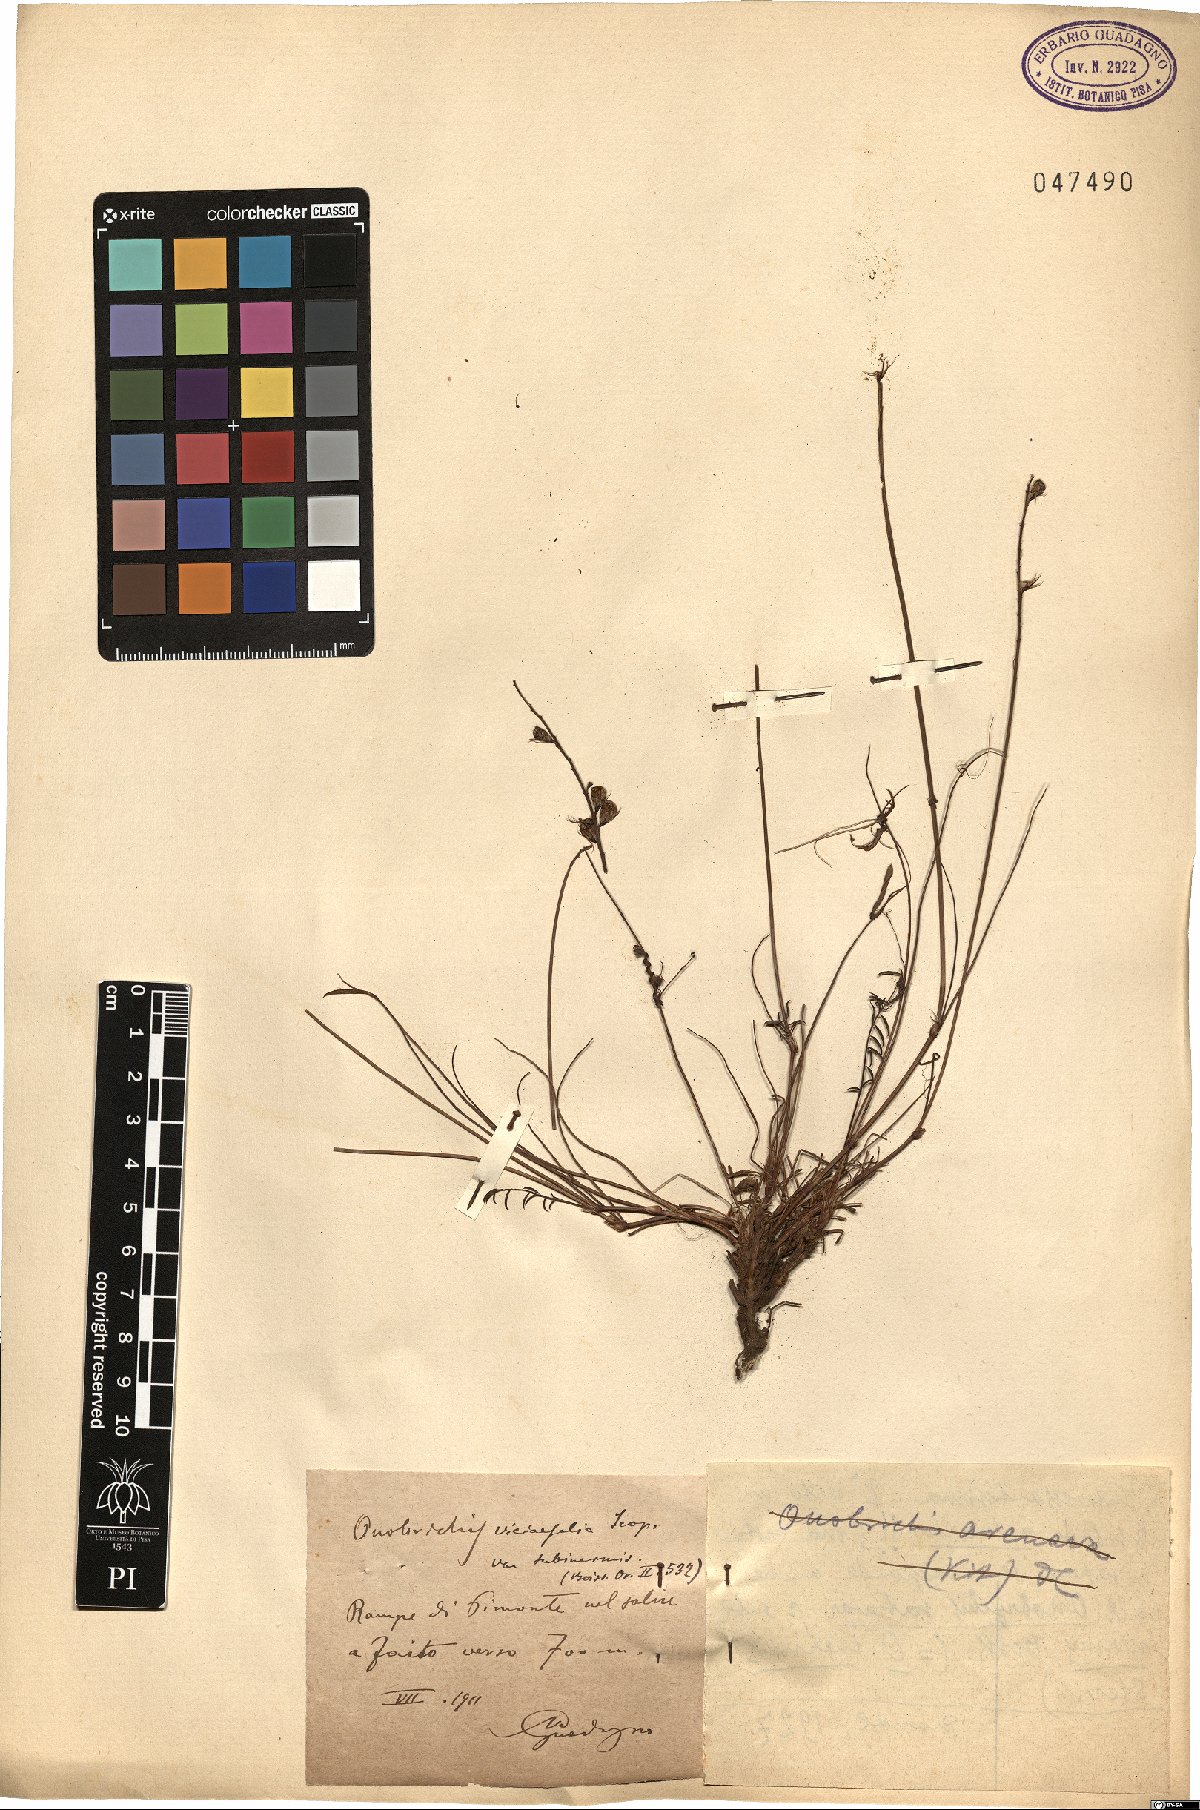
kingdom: Plantae
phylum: Tracheophyta
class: Magnoliopsida
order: Fabales
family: Fabaceae
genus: Onobrychis
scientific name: Onobrychis viciifolia
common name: Sainfoin
